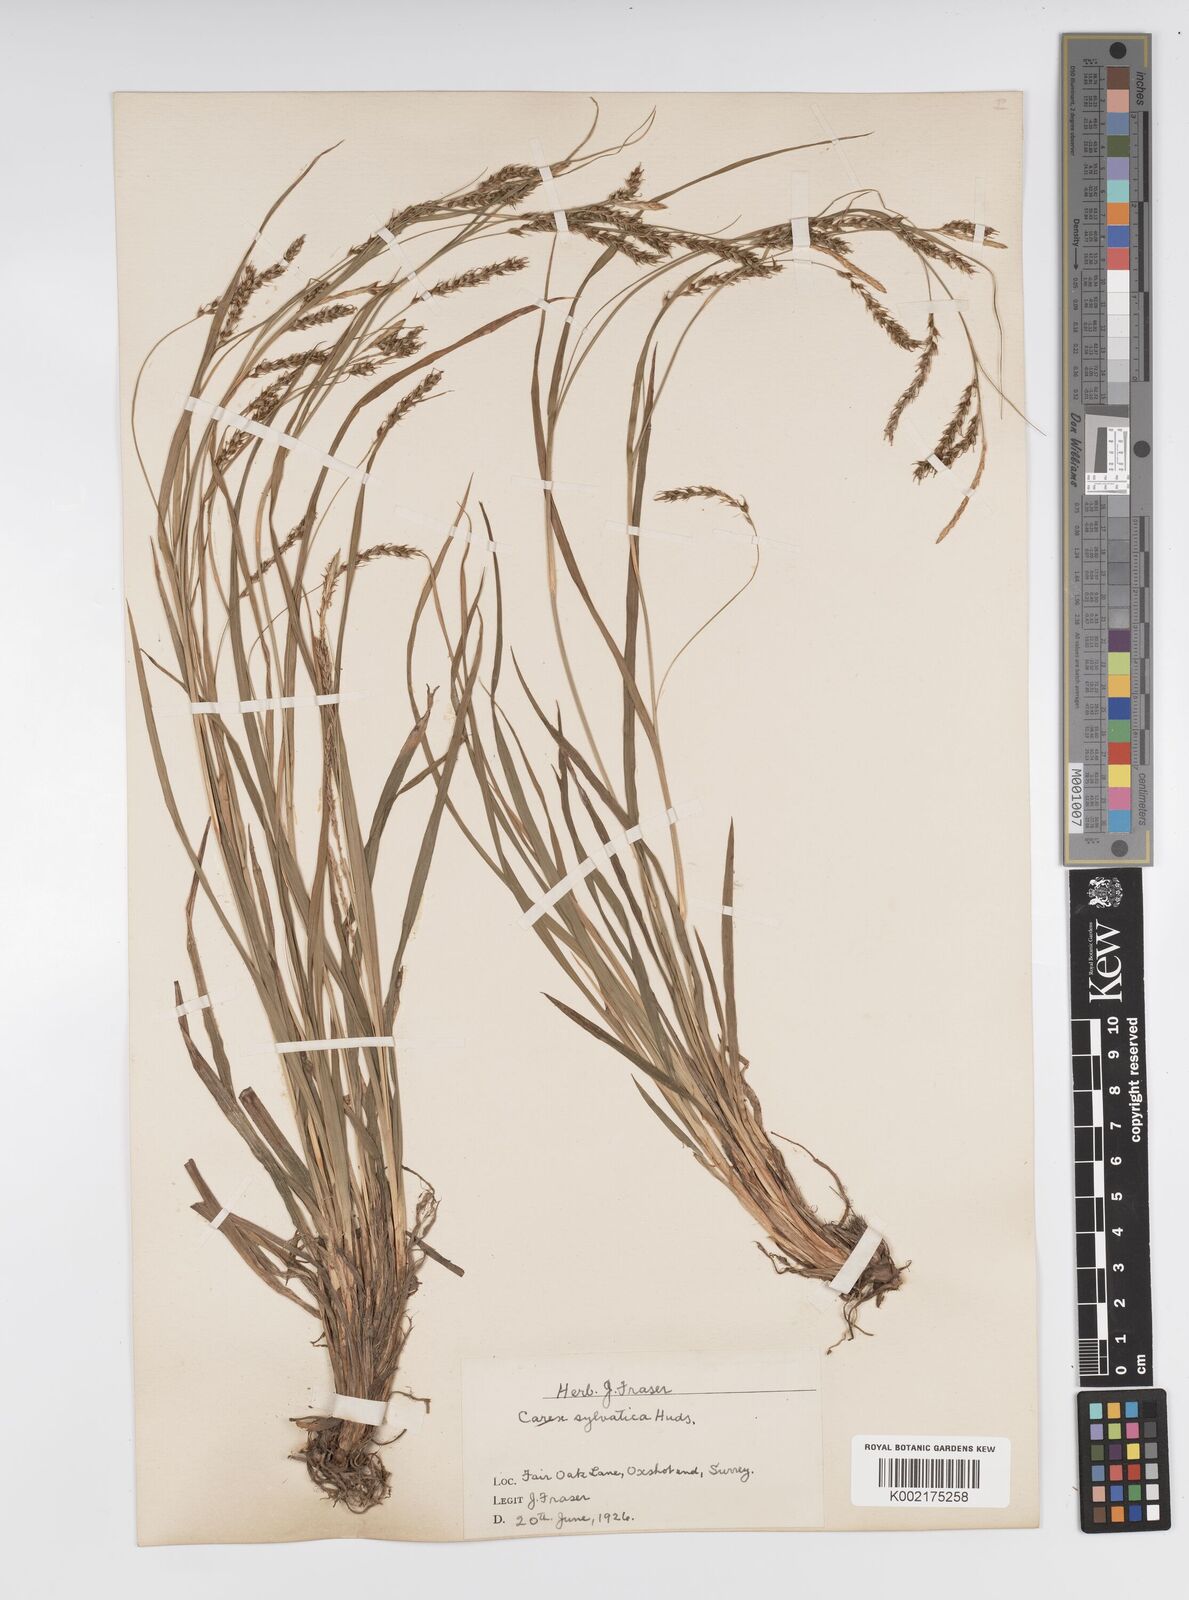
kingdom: Plantae
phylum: Tracheophyta
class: Liliopsida
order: Poales
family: Cyperaceae
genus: Carex
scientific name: Carex sylvatica
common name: Wood-sedge
